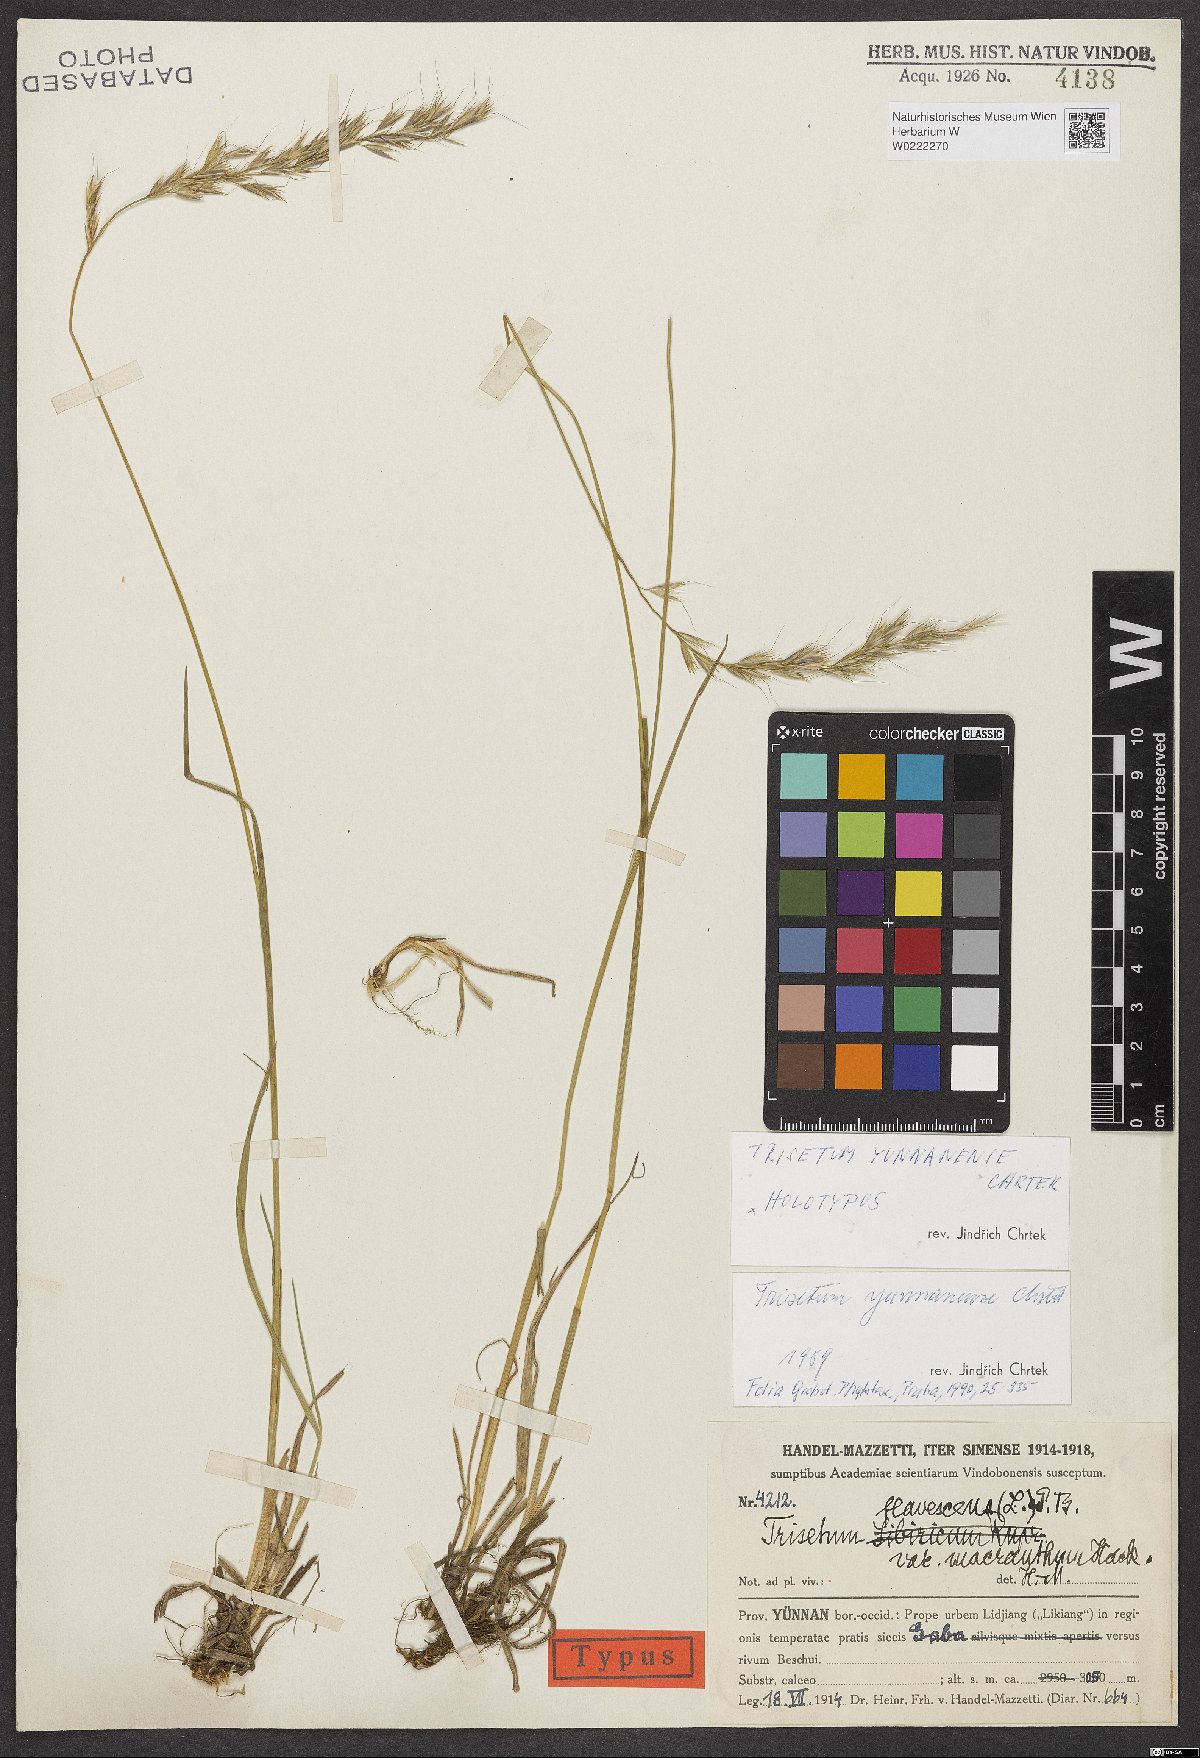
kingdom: Plantae
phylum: Tracheophyta
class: Liliopsida
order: Poales
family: Poaceae
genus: Trisetum
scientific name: Trisetum yunnanense
